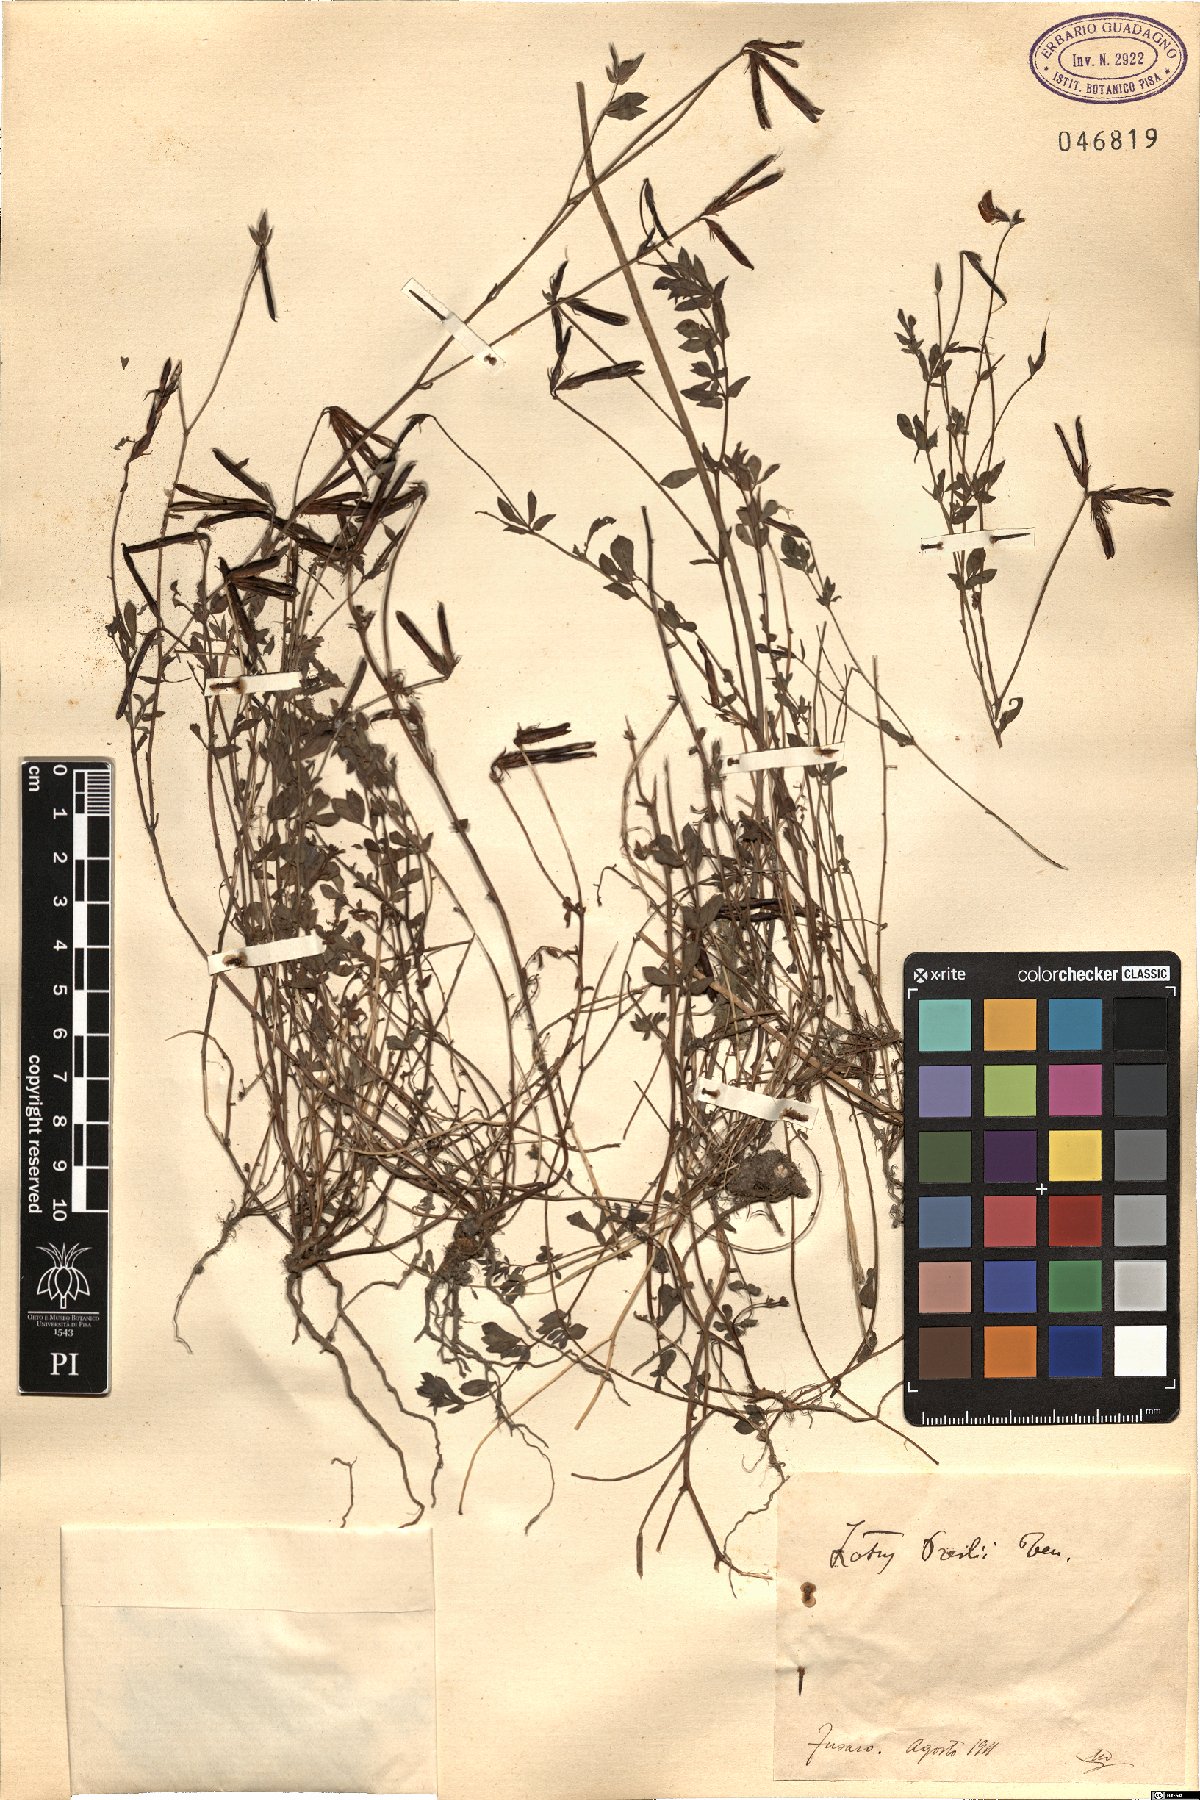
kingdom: Plantae
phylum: Tracheophyta
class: Magnoliopsida
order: Fabales
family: Fabaceae
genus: Lotus
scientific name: Lotus corniculatus
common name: Common bird's-foot-trefoil
